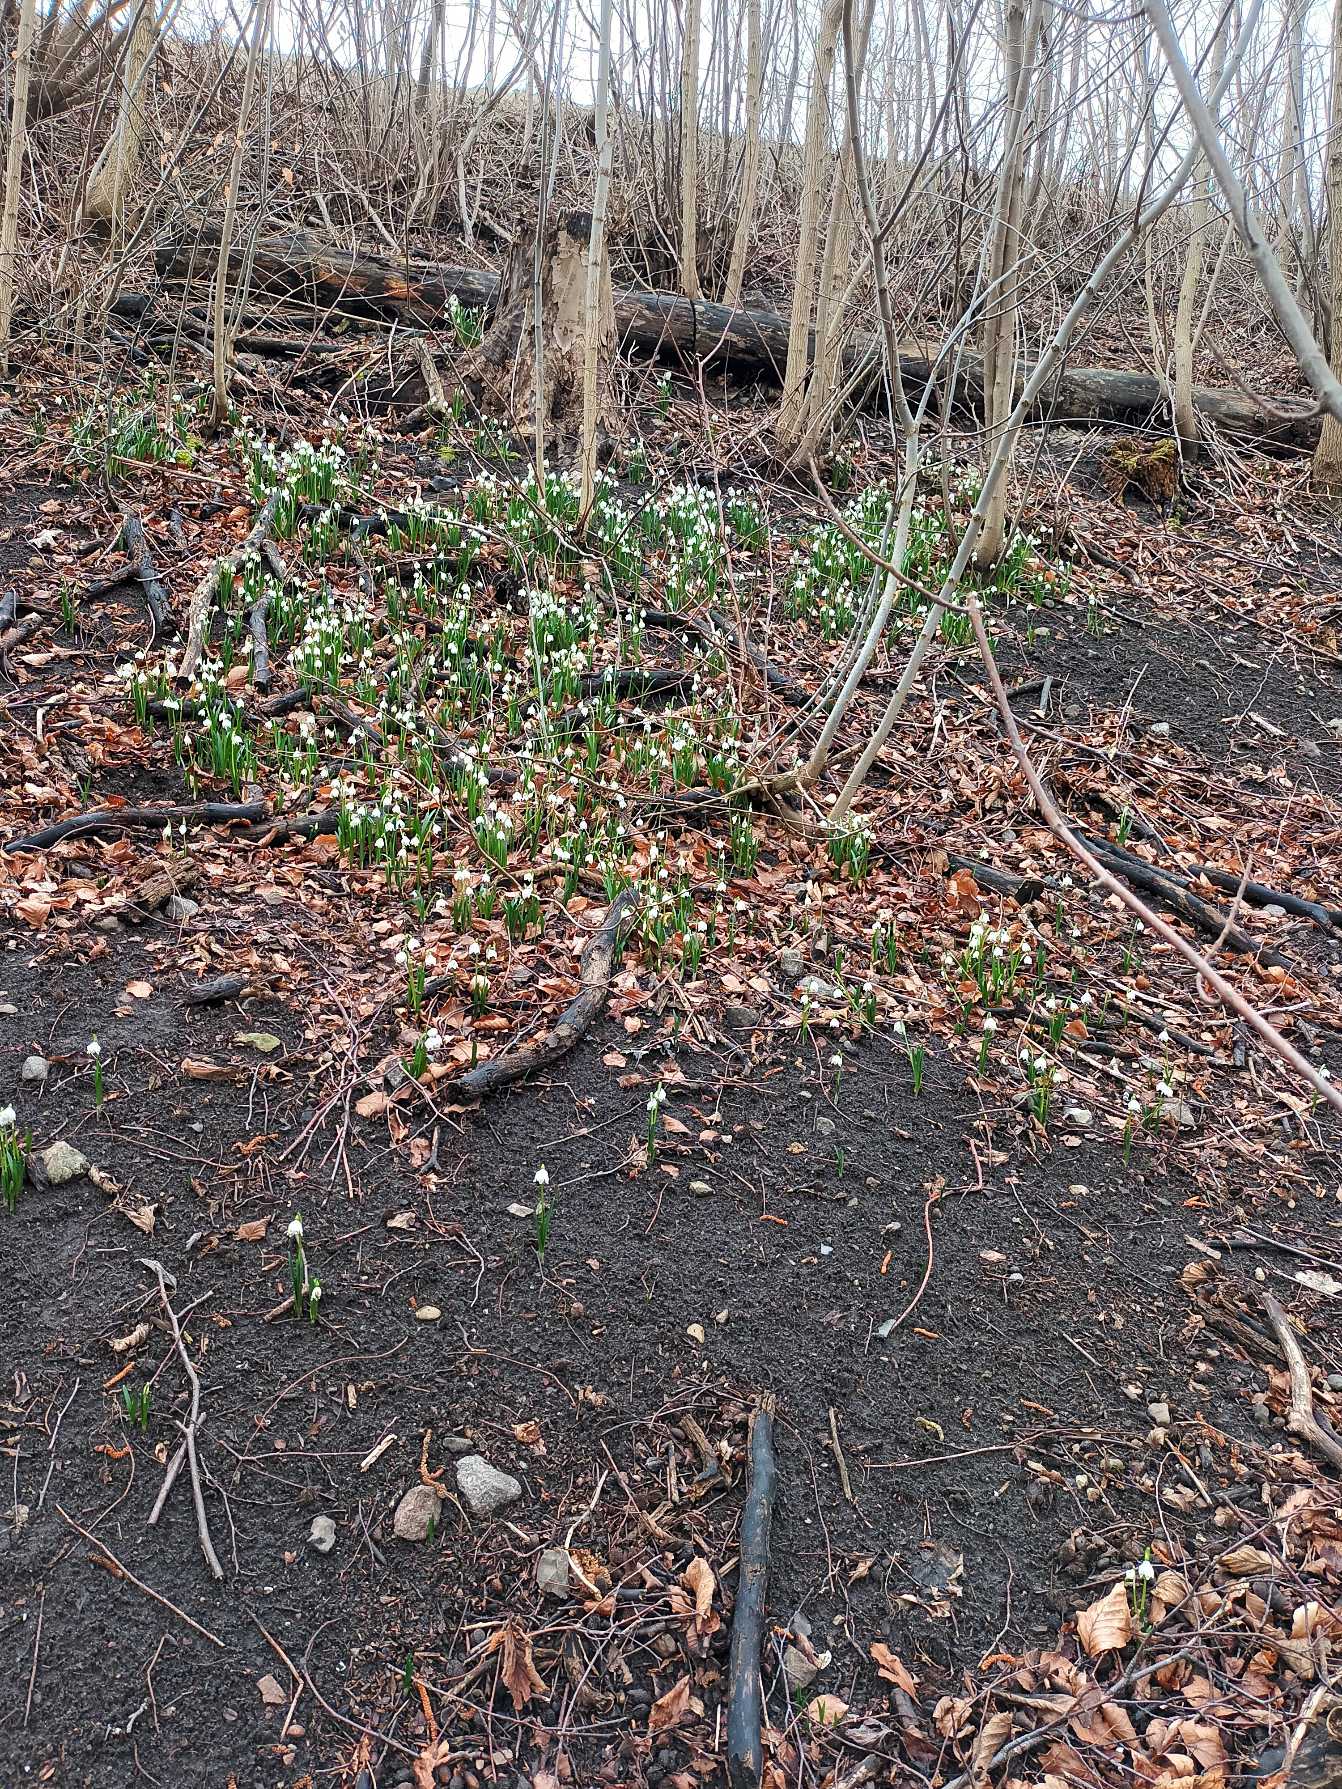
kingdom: Plantae
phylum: Tracheophyta
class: Liliopsida
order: Asparagales
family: Amaryllidaceae
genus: Leucojum
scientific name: Leucojum vernum
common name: Dorthealilje
